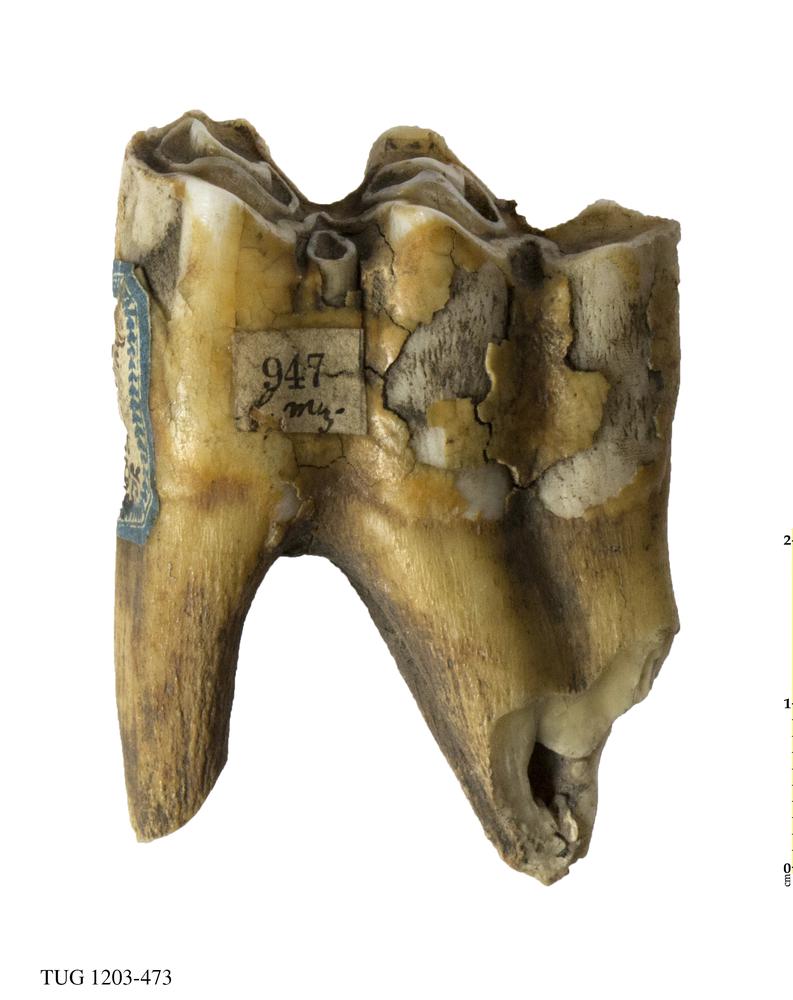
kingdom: Animalia
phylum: Chordata
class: Mammalia
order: Artiodactyla
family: Bovidae
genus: Bos
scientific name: Bos
